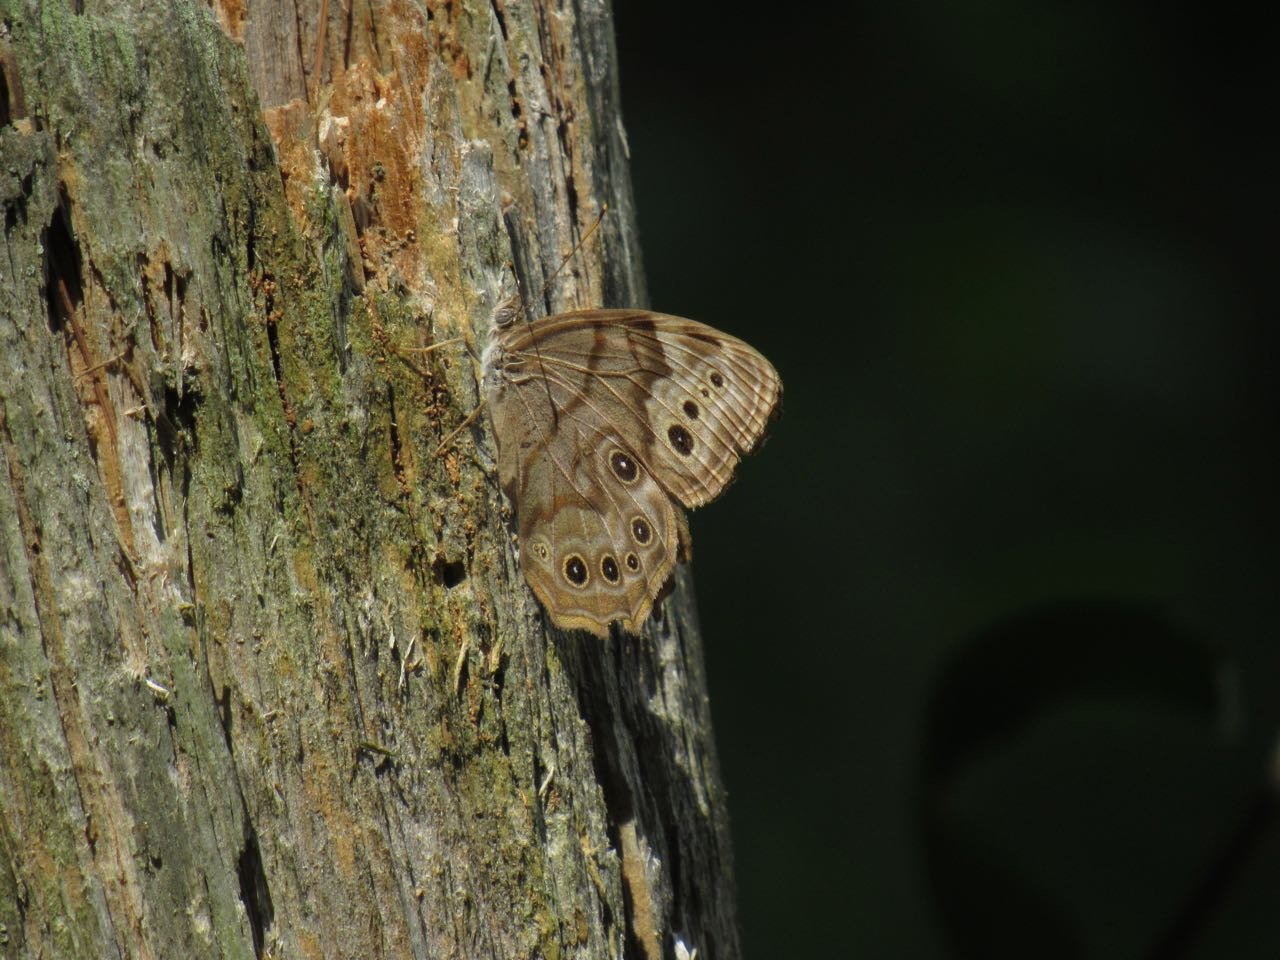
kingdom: Animalia
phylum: Arthropoda
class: Insecta
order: Lepidoptera
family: Nymphalidae
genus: Lethe
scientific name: Lethe anthedon
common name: Northern Pearly-Eye
